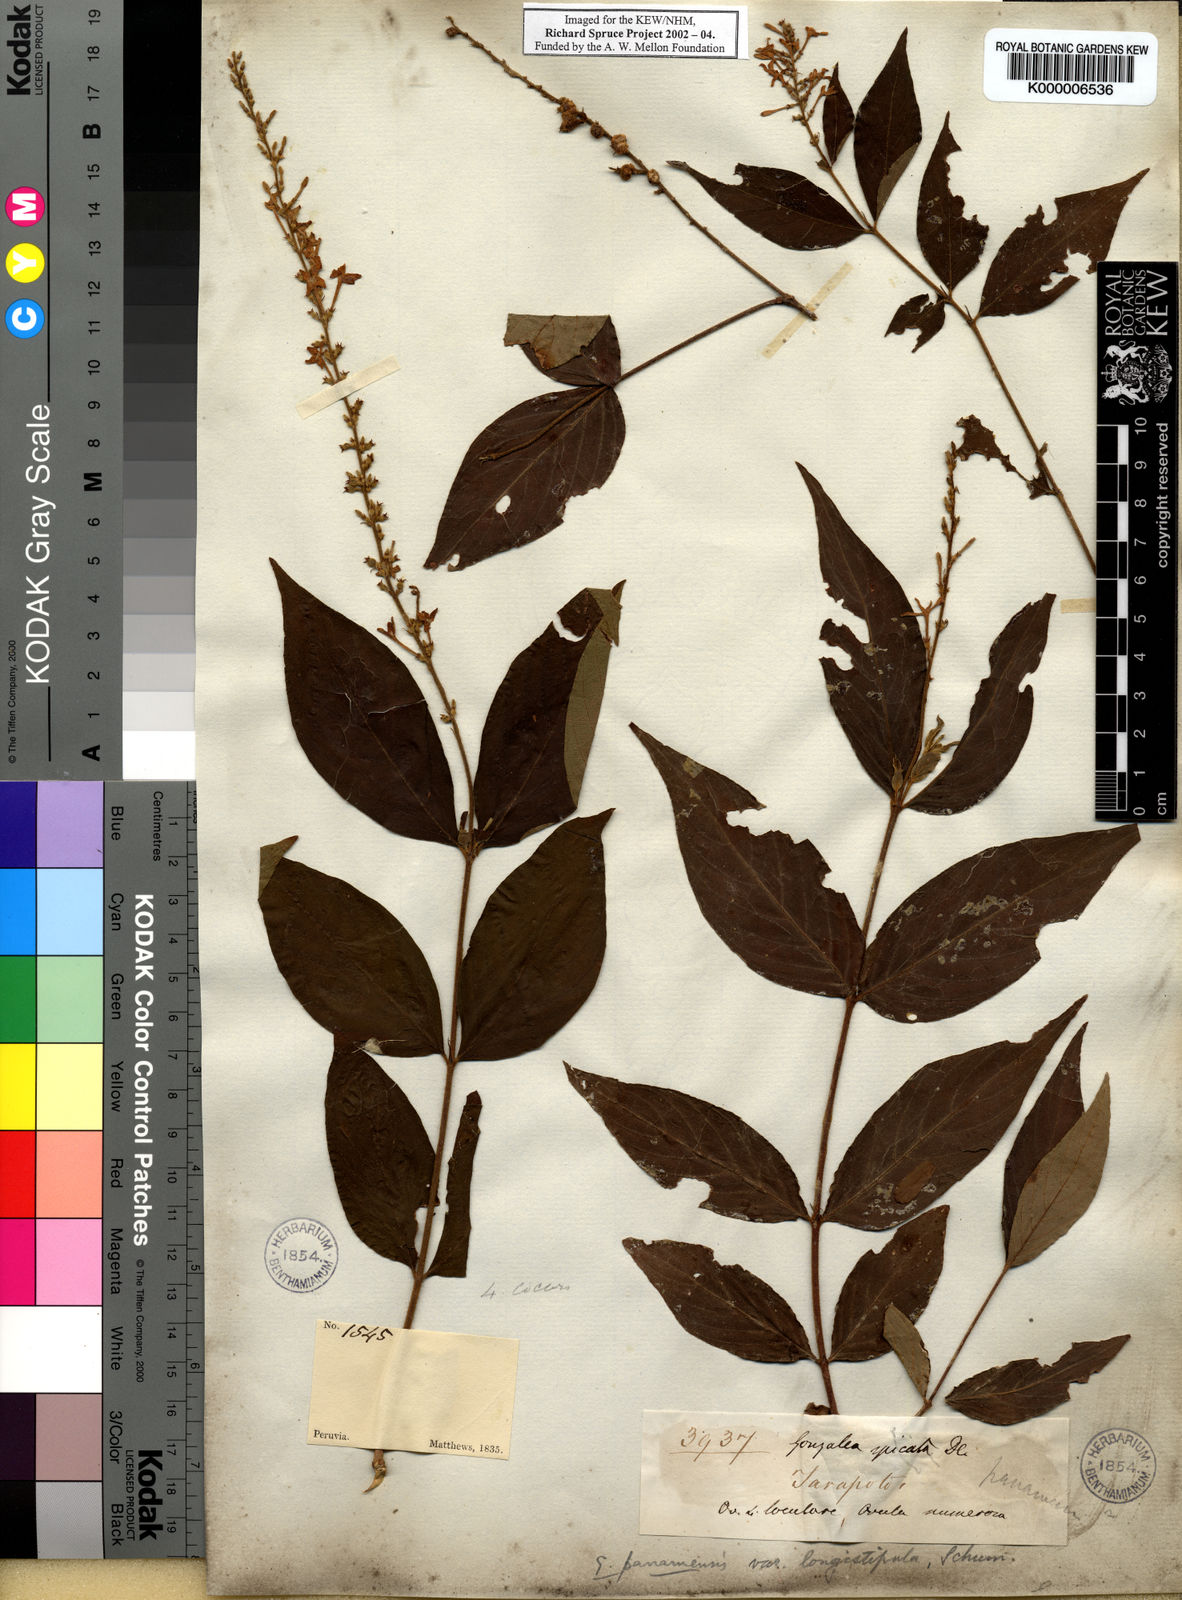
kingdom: Plantae
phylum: Tracheophyta
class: Magnoliopsida
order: Gentianales
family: Rubiaceae
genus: Gonzalagunia
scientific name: Gonzalagunia cornifolia
